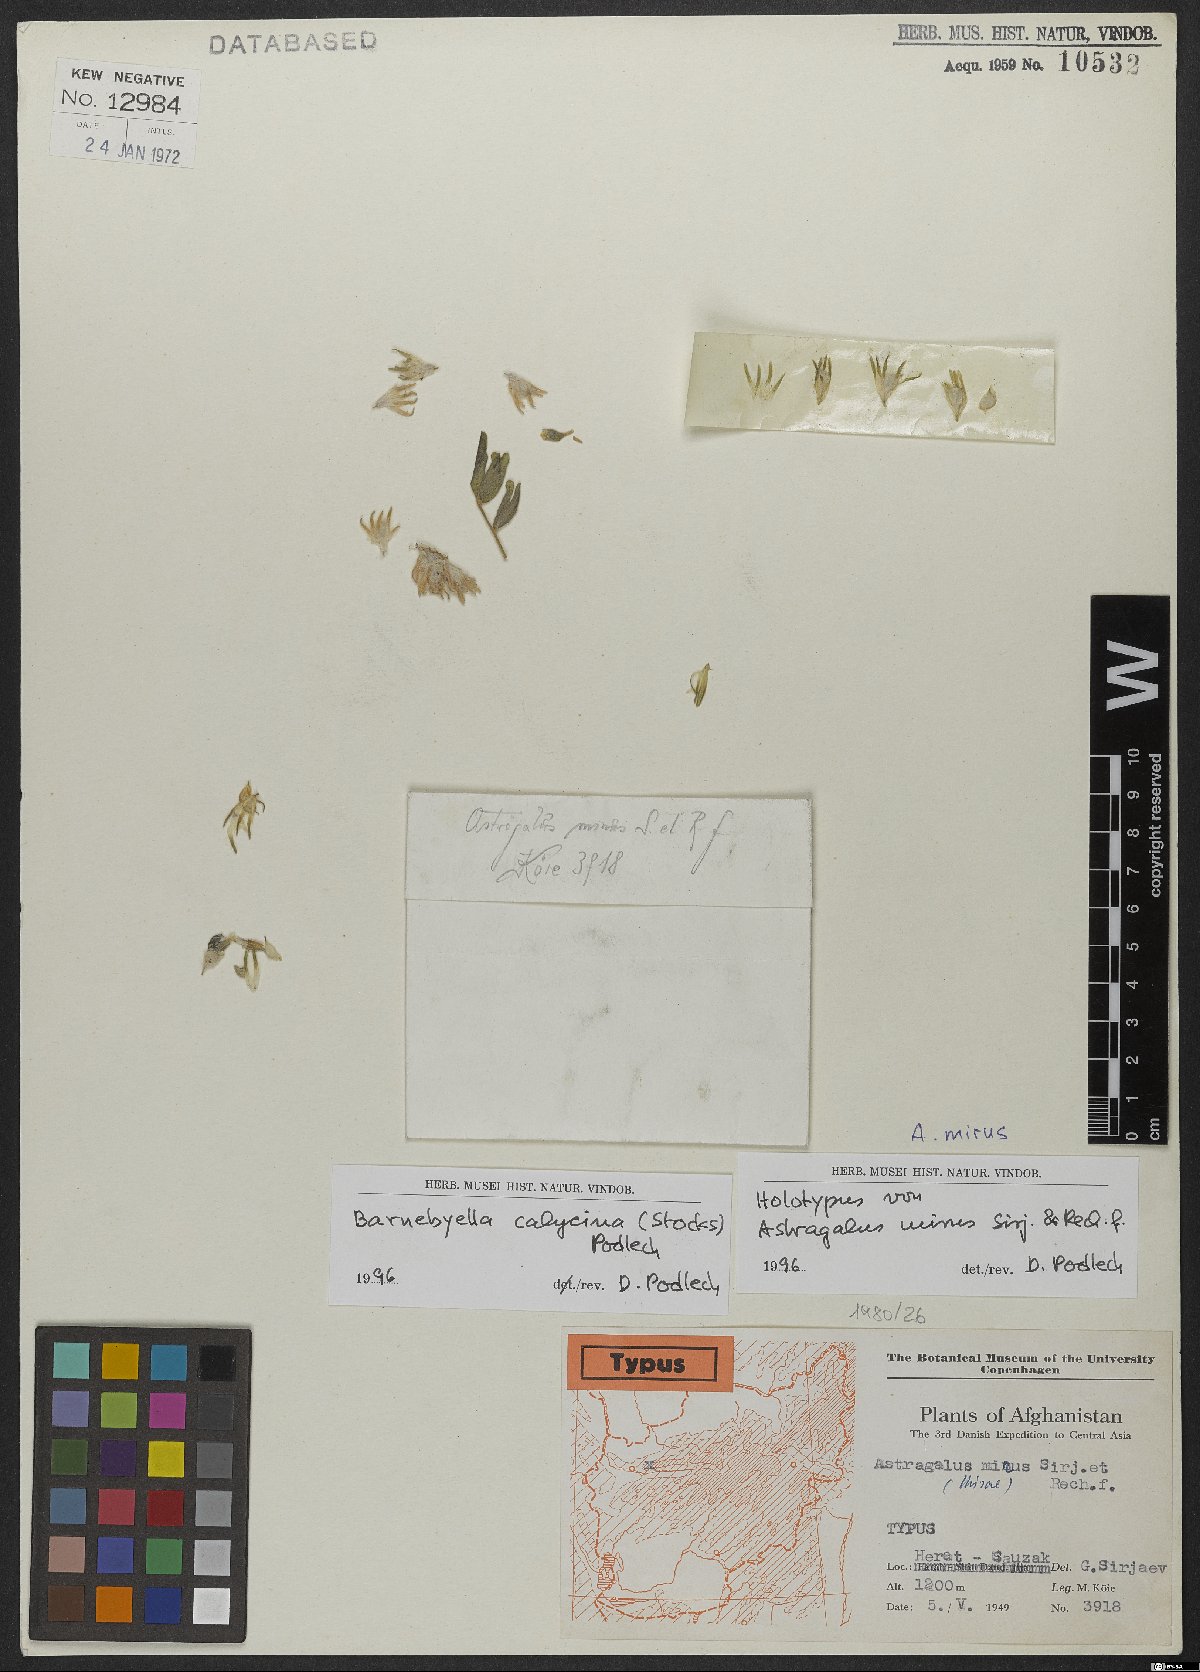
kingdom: Plantae
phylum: Tracheophyta
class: Magnoliopsida
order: Fabales
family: Fabaceae
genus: Astragalus
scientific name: Astragalus migpo
